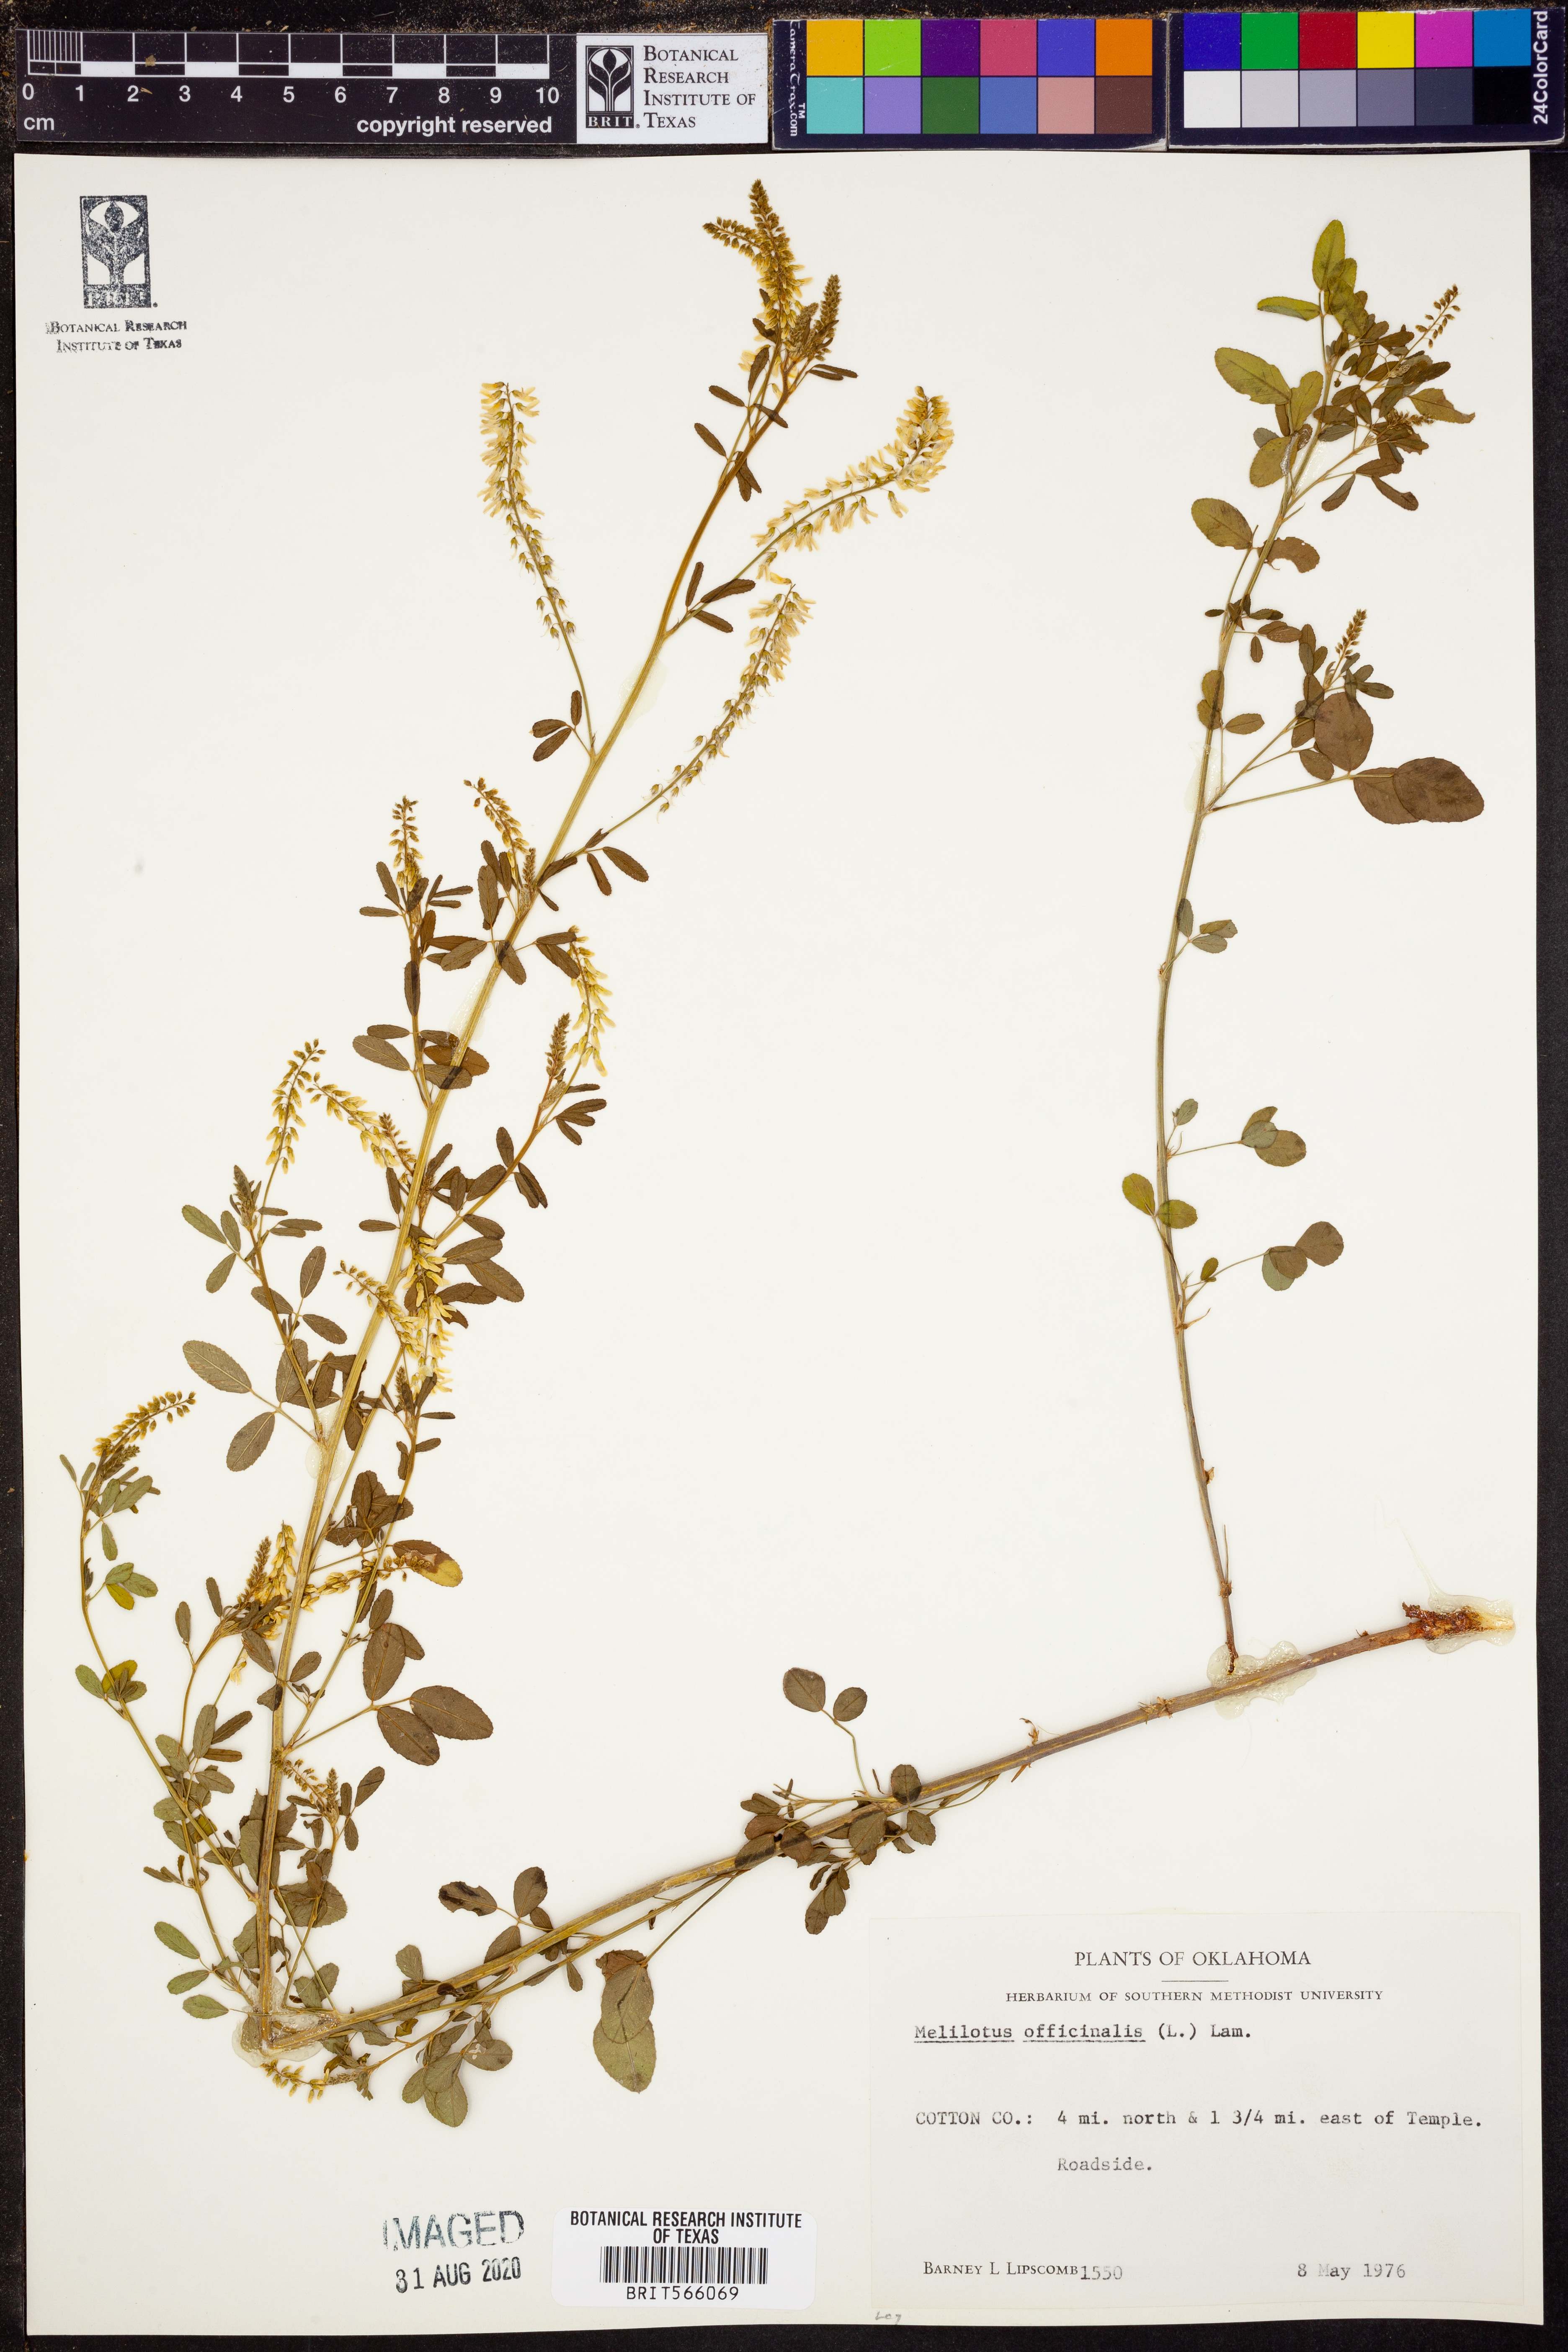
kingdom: Plantae
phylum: Tracheophyta
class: Magnoliopsida
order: Fabales
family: Fabaceae
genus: Melilotus
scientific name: Melilotus officinalis
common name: Sweetclover
